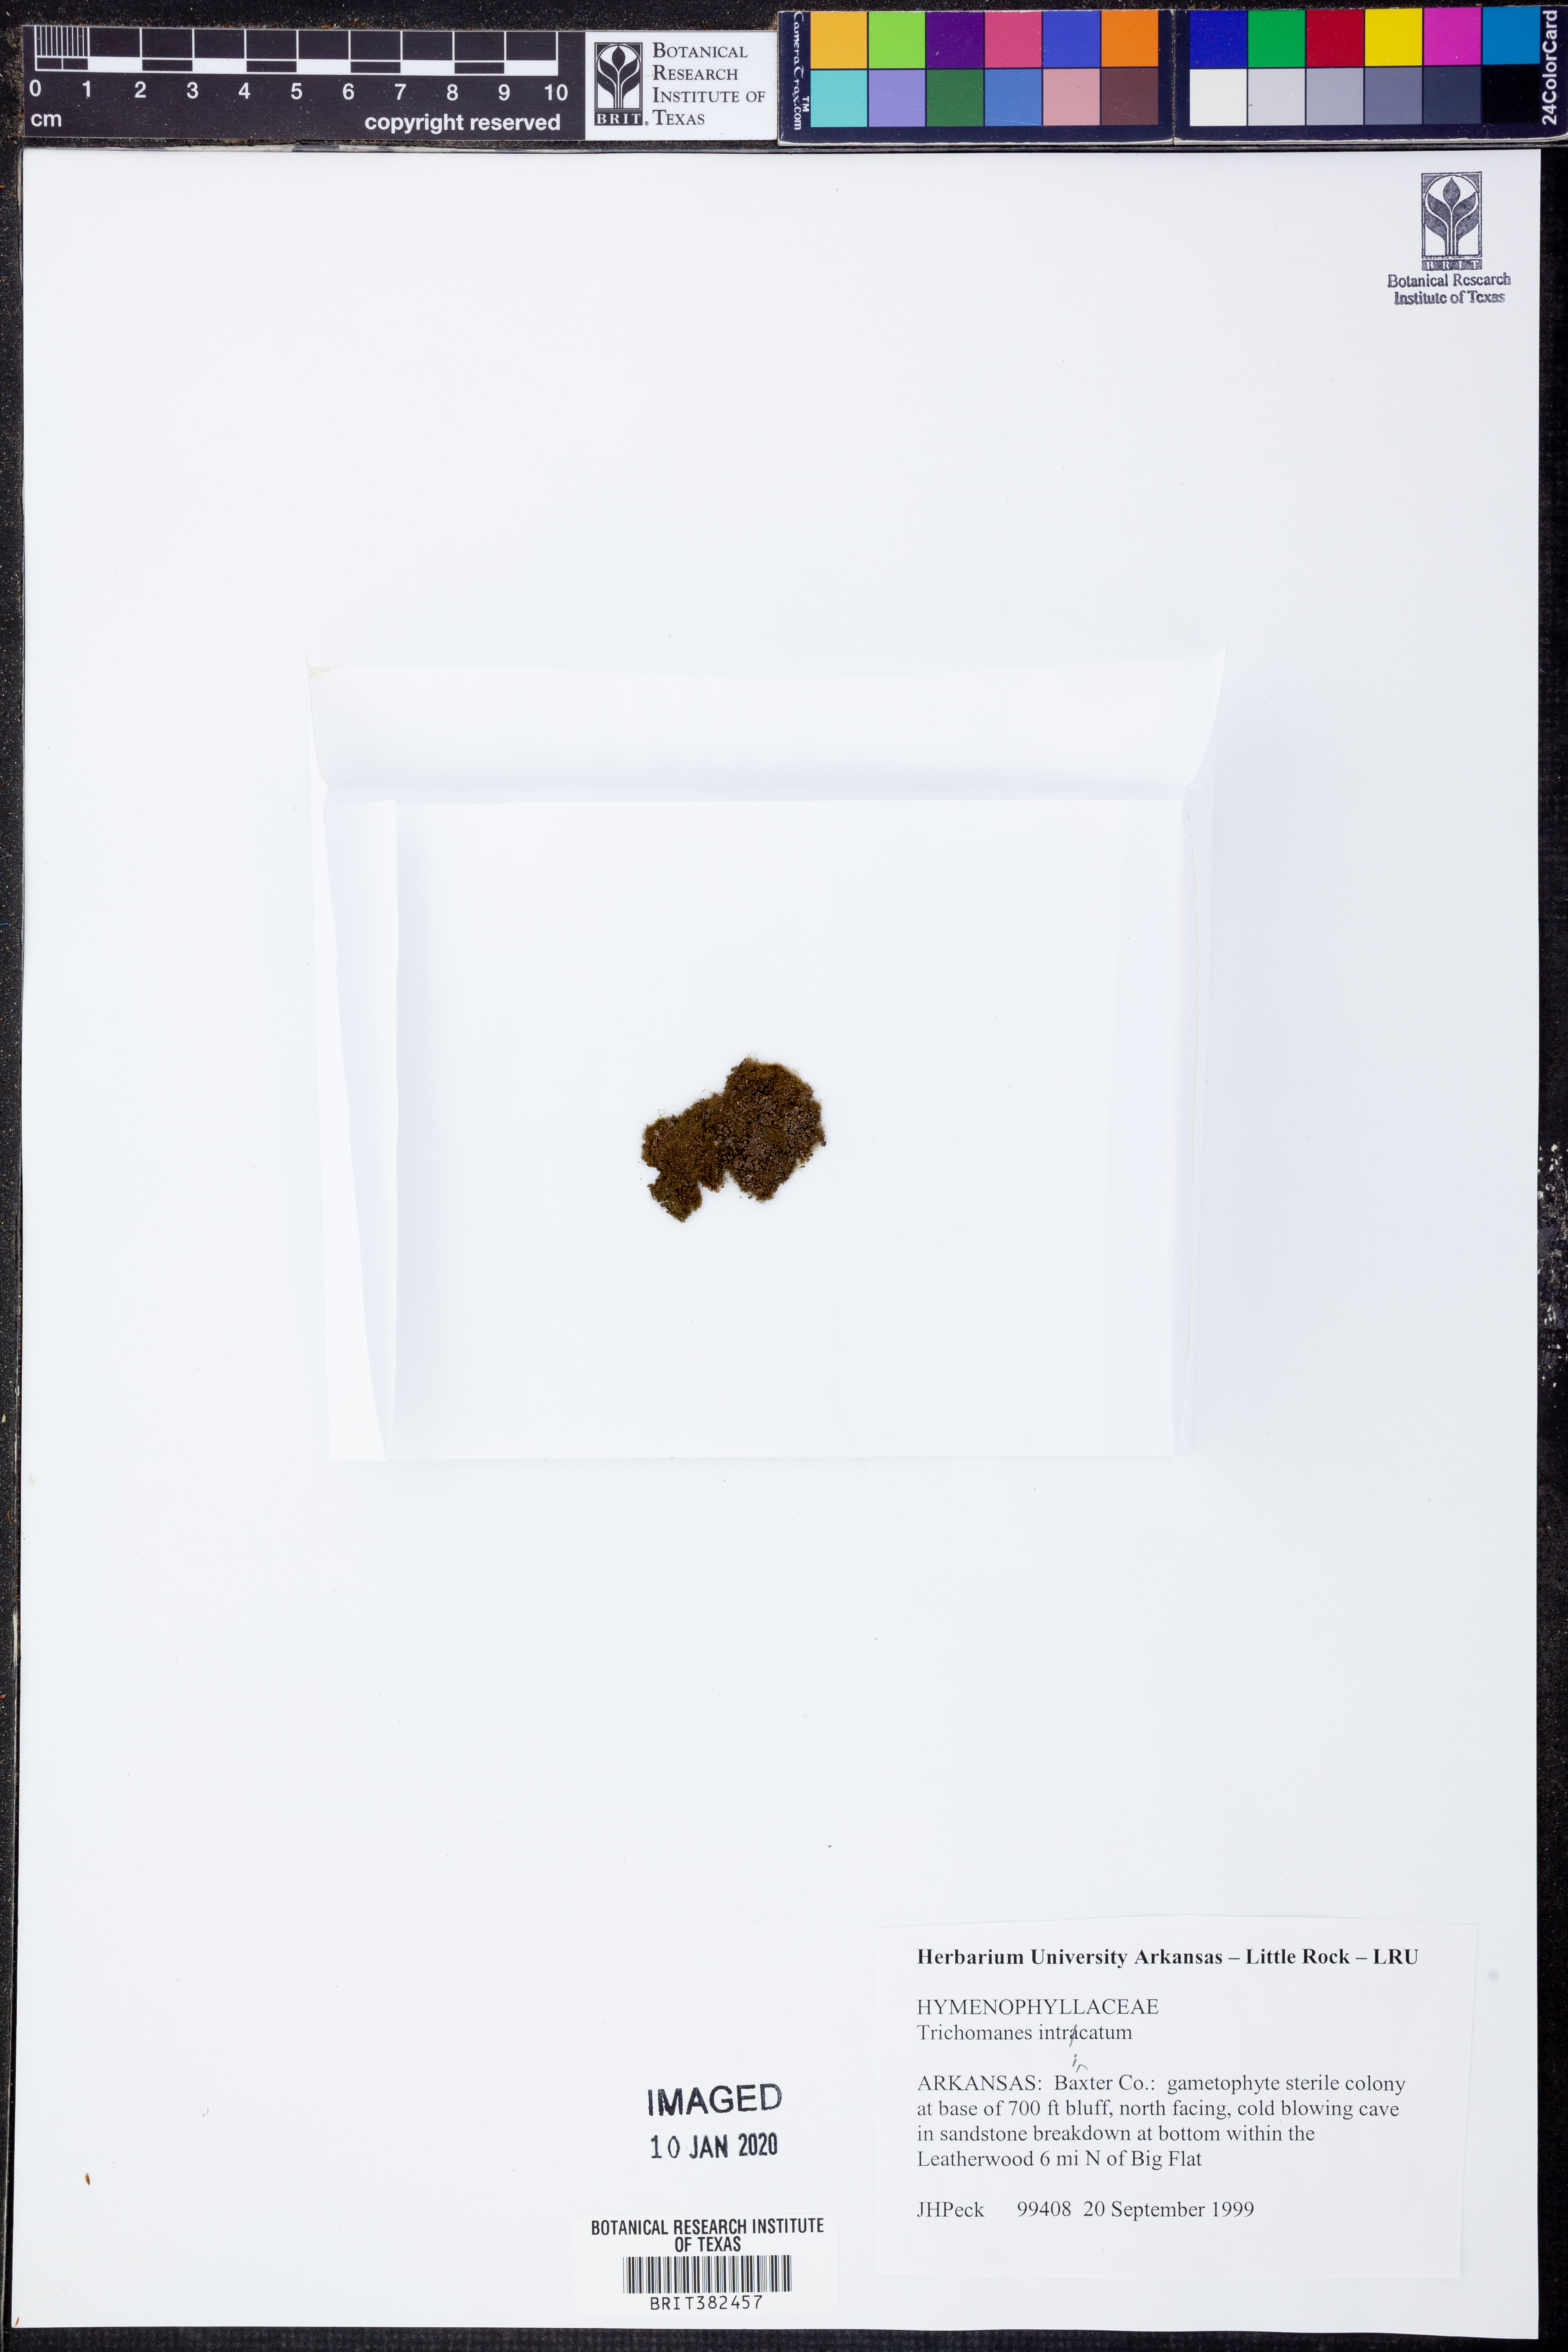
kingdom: Plantae
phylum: Tracheophyta
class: Polypodiopsida
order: Hymenophyllales
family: Hymenophyllaceae
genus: Crepidomanes
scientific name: Crepidomanes intricatum
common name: Weft fern
